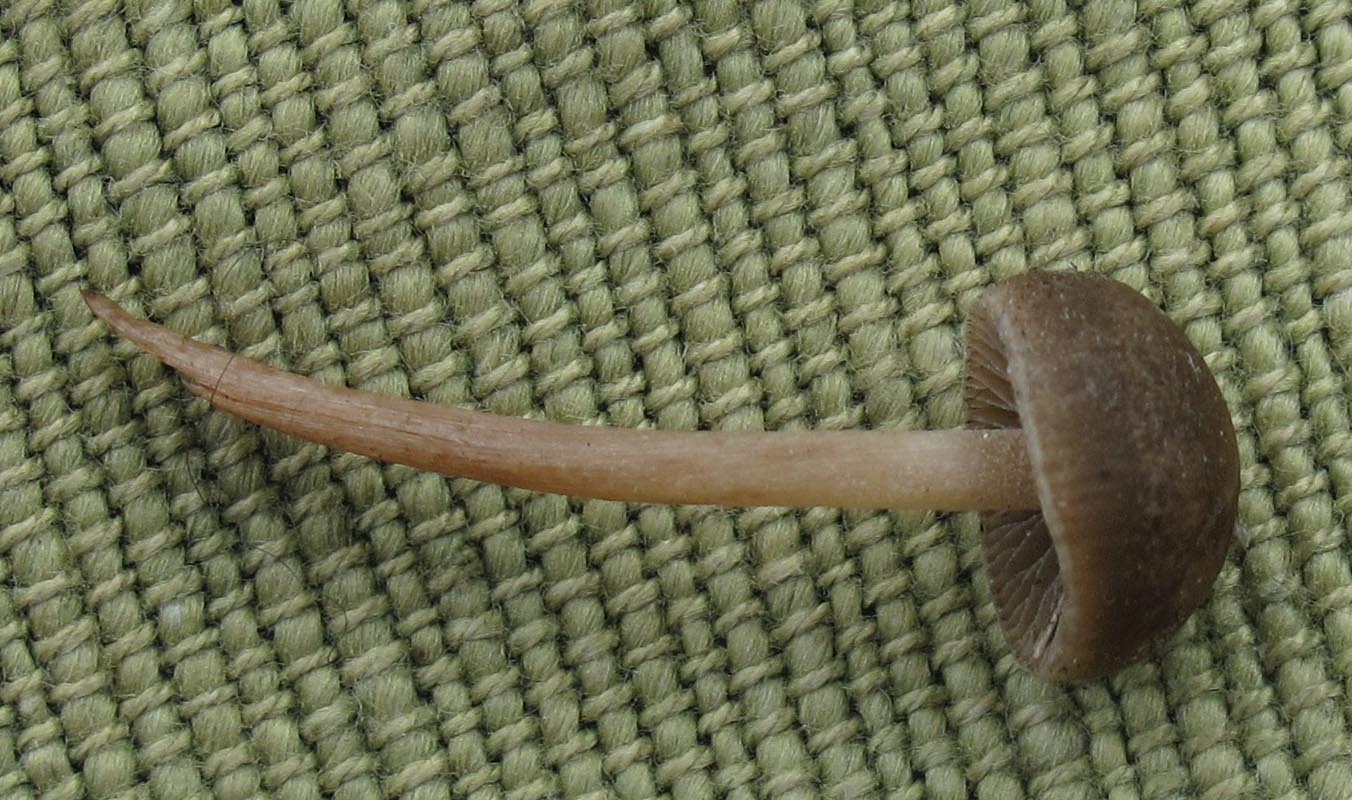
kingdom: Fungi
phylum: Basidiomycota
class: Agaricomycetes
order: Agaricales
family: Bolbitiaceae
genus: Panaeolus
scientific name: Panaeolus fimicola
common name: tidlig glanshat
